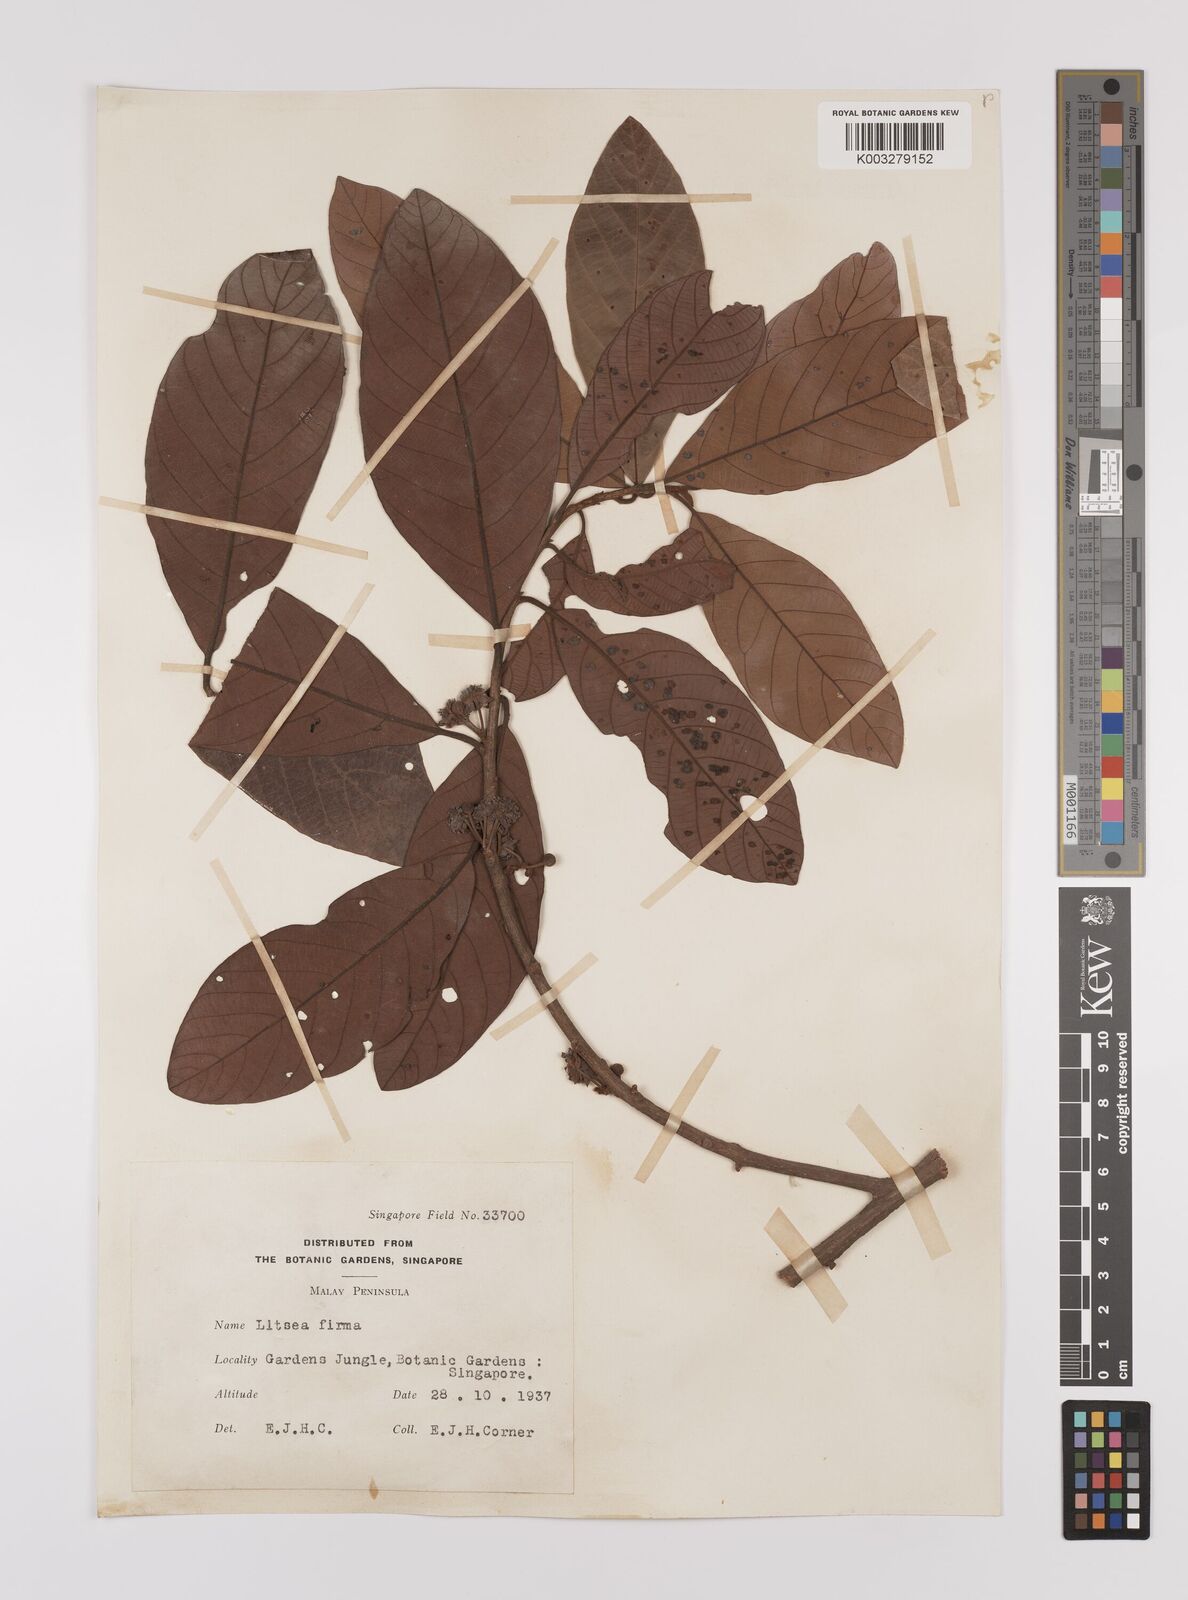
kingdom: Plantae
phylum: Tracheophyta
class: Magnoliopsida
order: Laurales
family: Lauraceae
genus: Litsea
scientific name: Litsea firma
